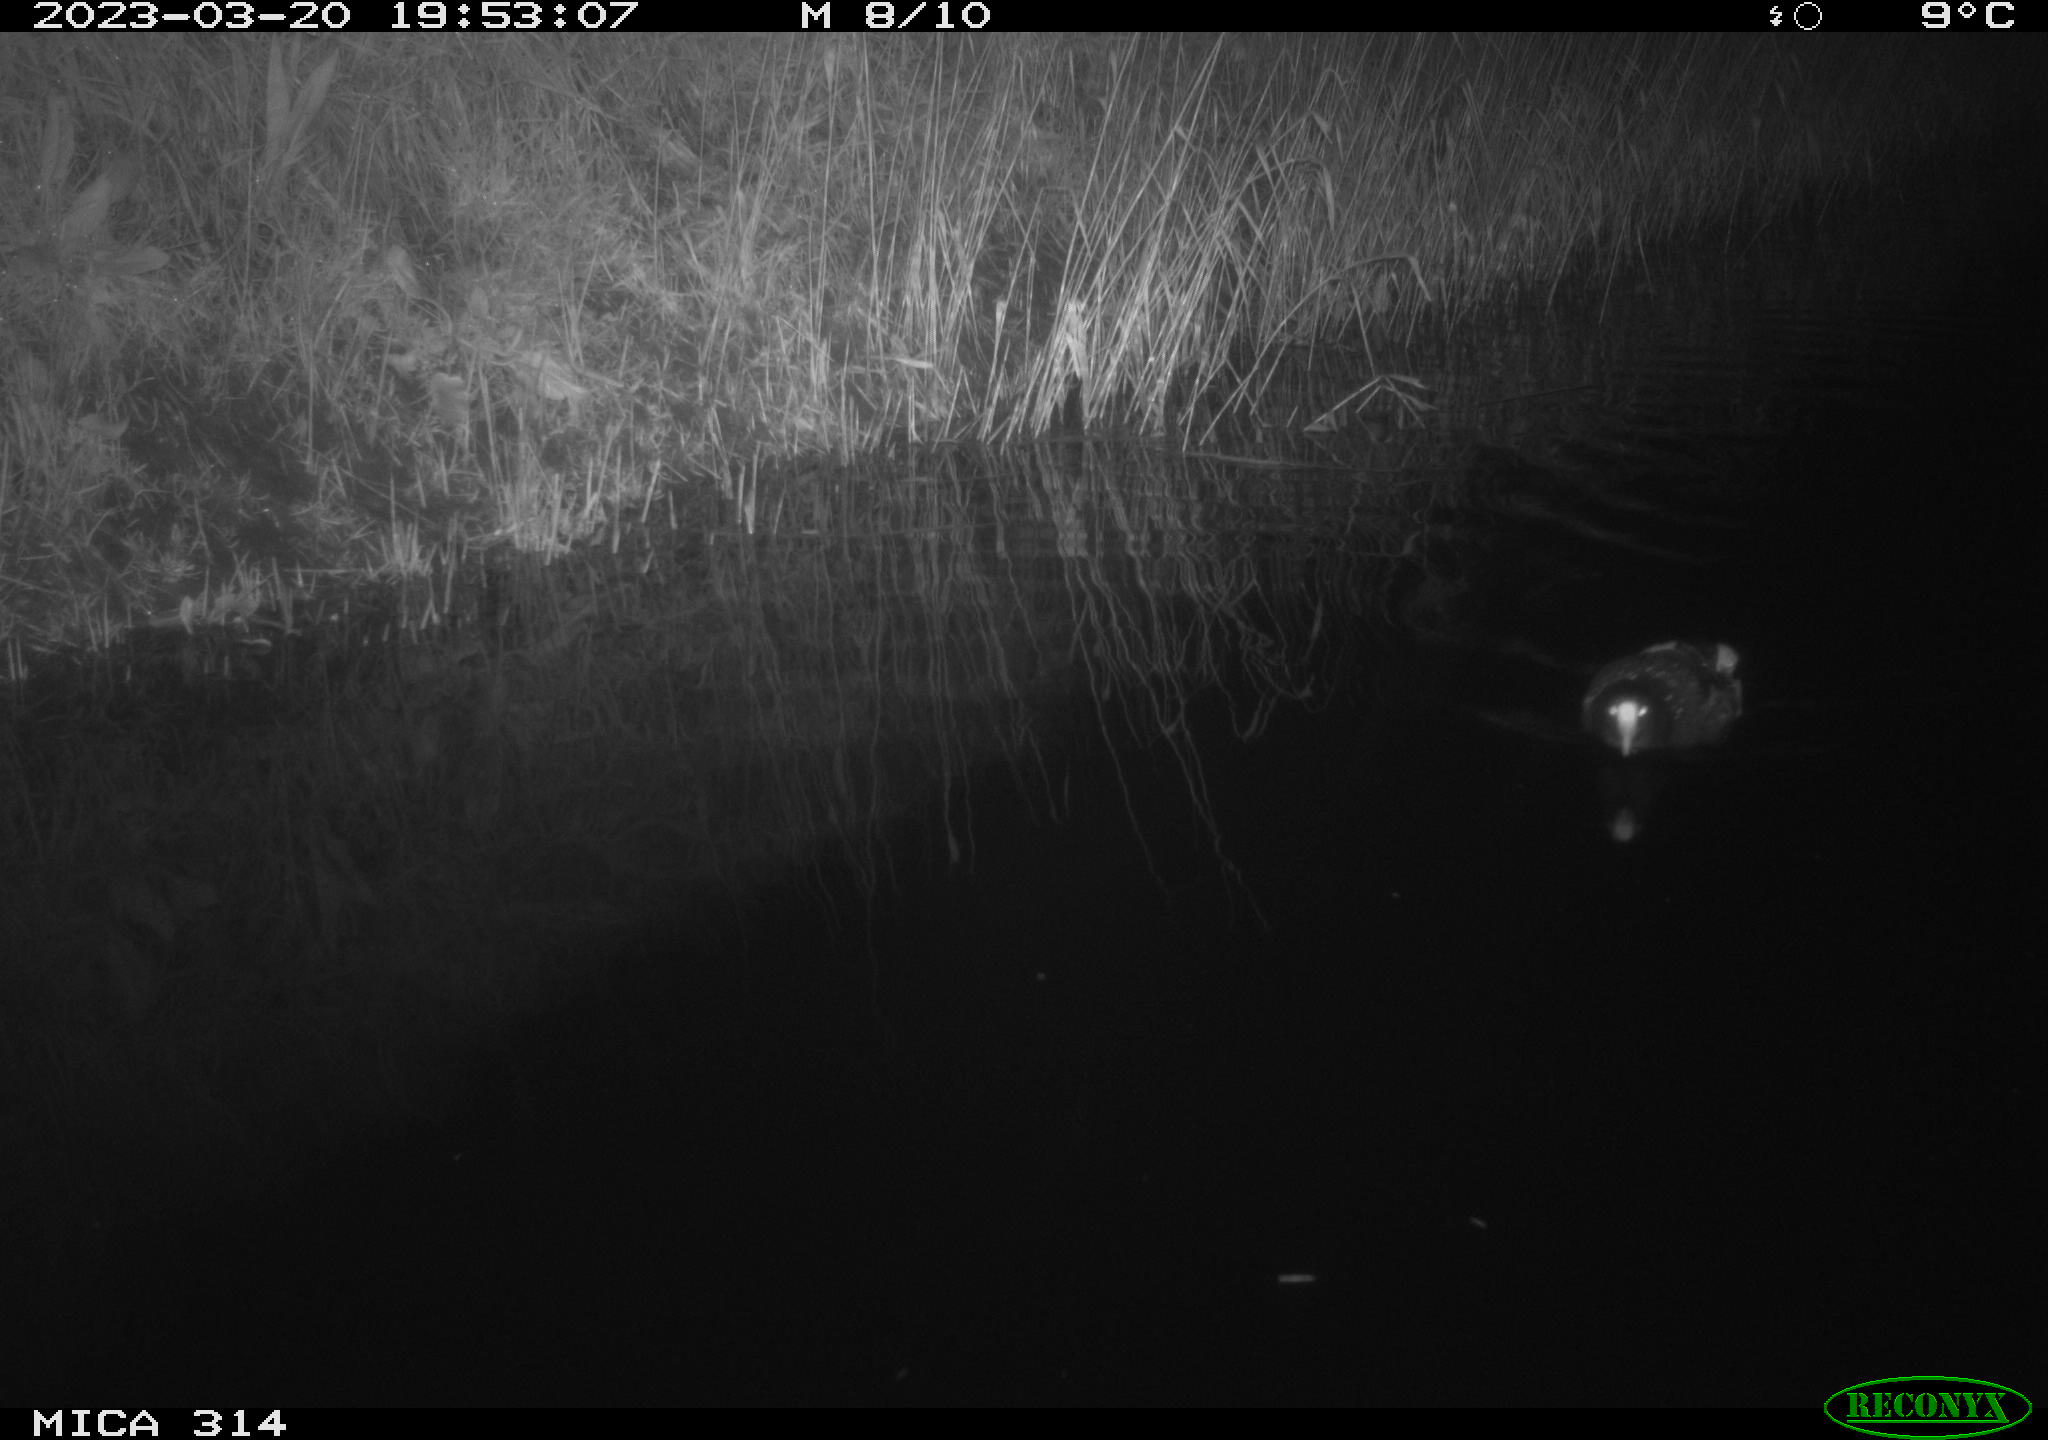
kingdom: Animalia
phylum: Chordata
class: Mammalia
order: Rodentia
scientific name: Rodentia
